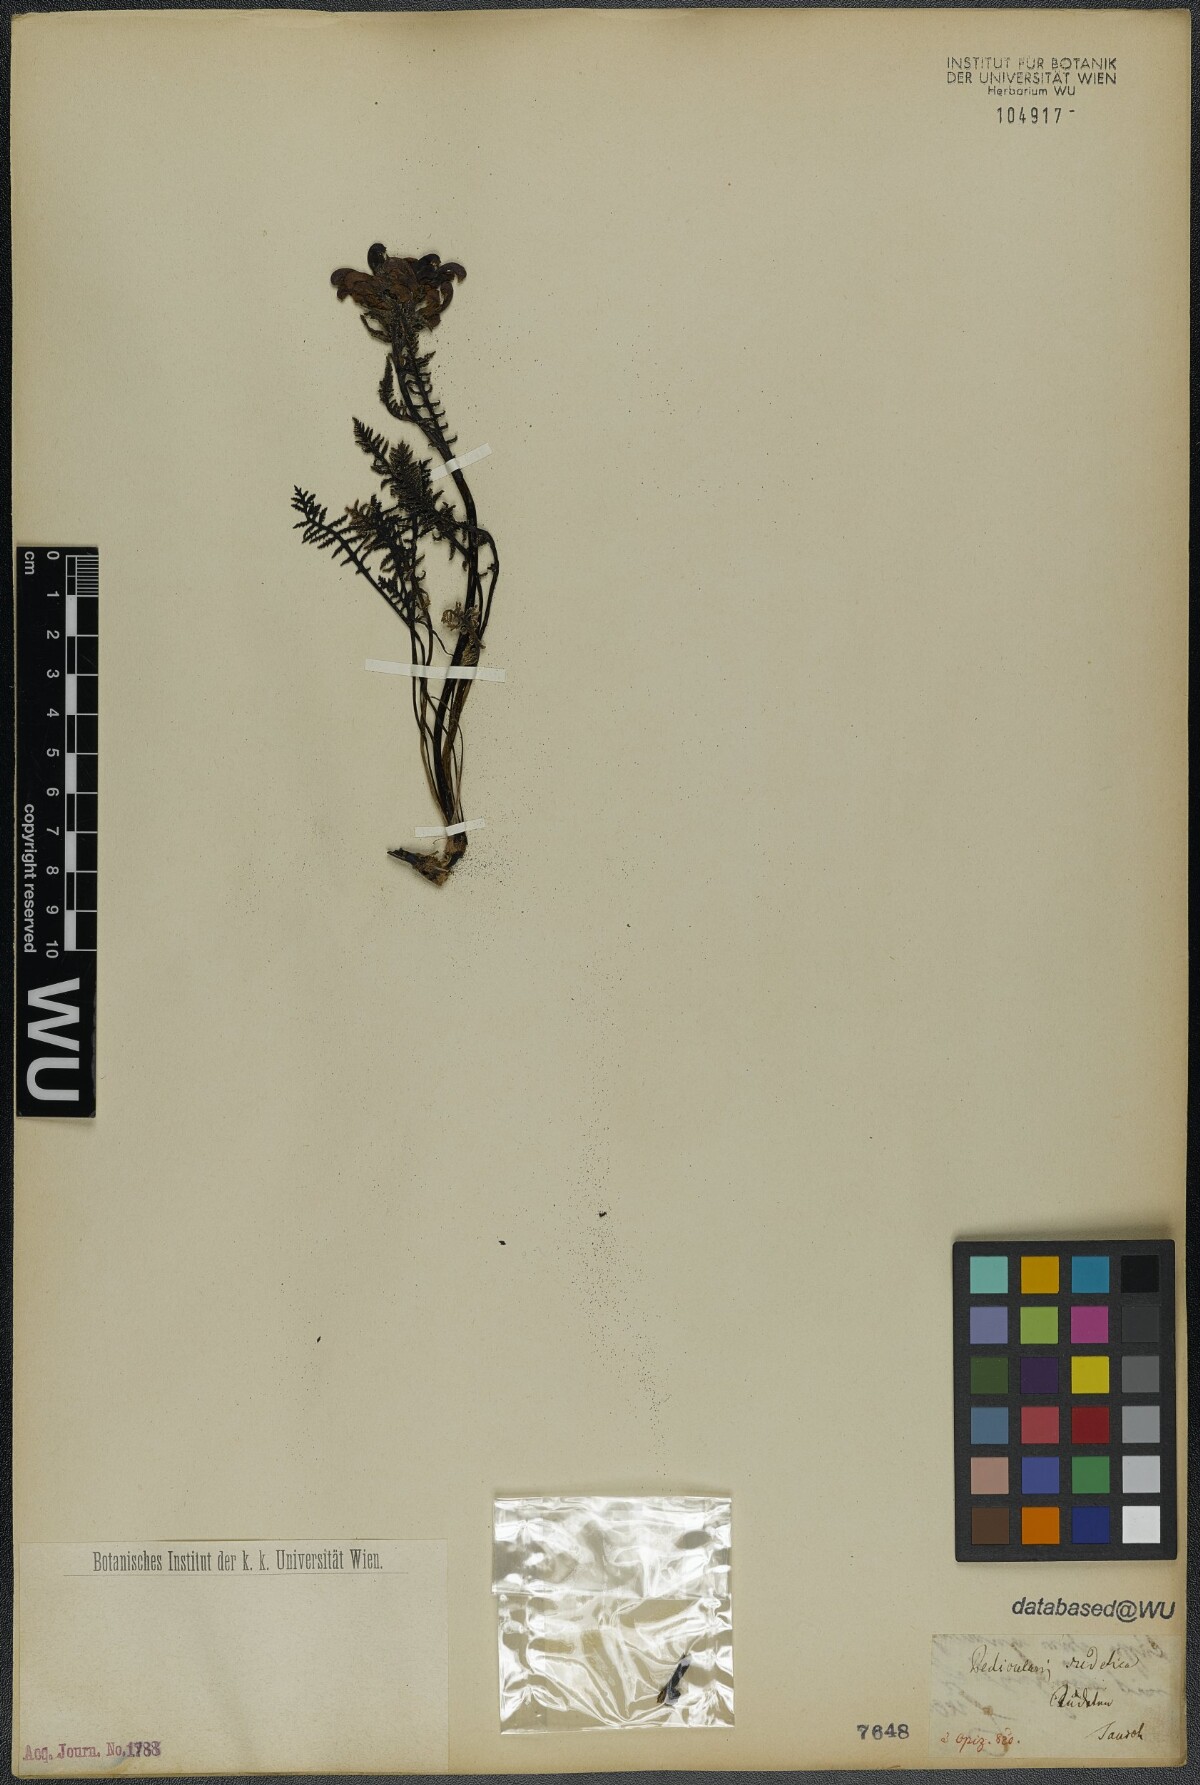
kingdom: Plantae
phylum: Tracheophyta
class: Magnoliopsida
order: Lamiales
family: Orobanchaceae
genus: Pedicularis
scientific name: Pedicularis sudetica
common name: Sudeten lousewort
